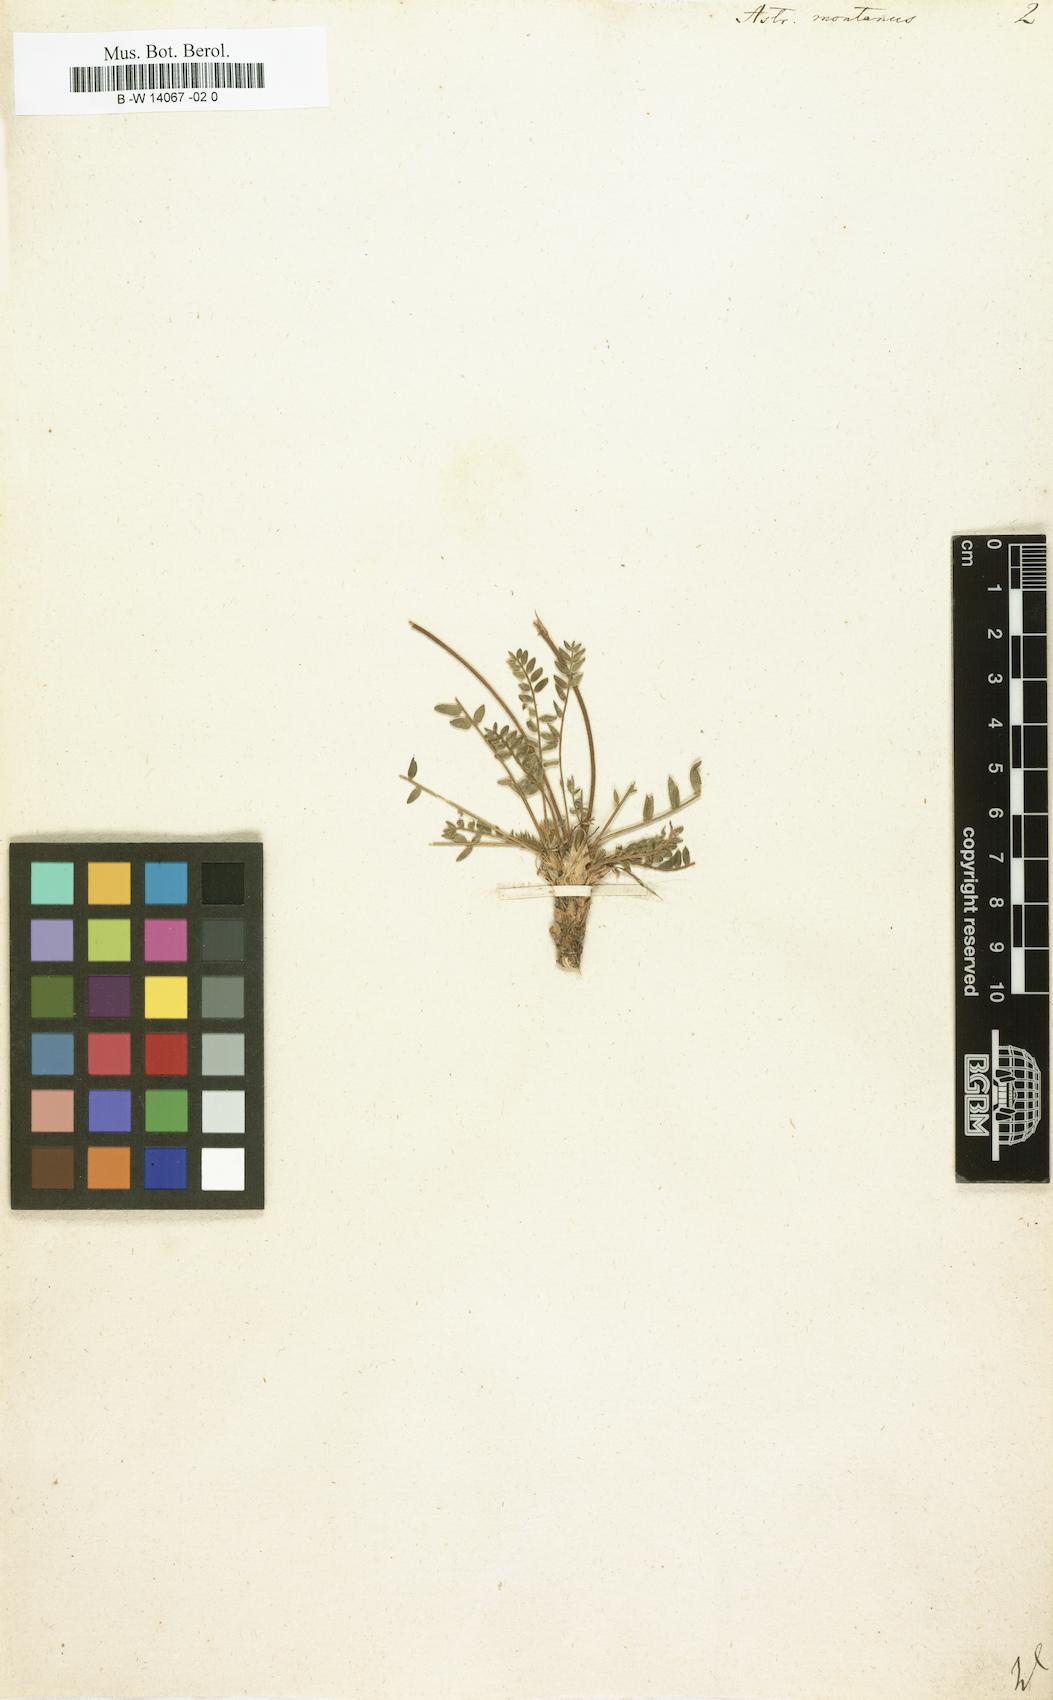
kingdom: Plantae
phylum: Tracheophyta
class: Magnoliopsida
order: Fabales
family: Fabaceae
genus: Astragalus
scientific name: Astragalus kentrophyta
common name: Prickly milk-vetch
